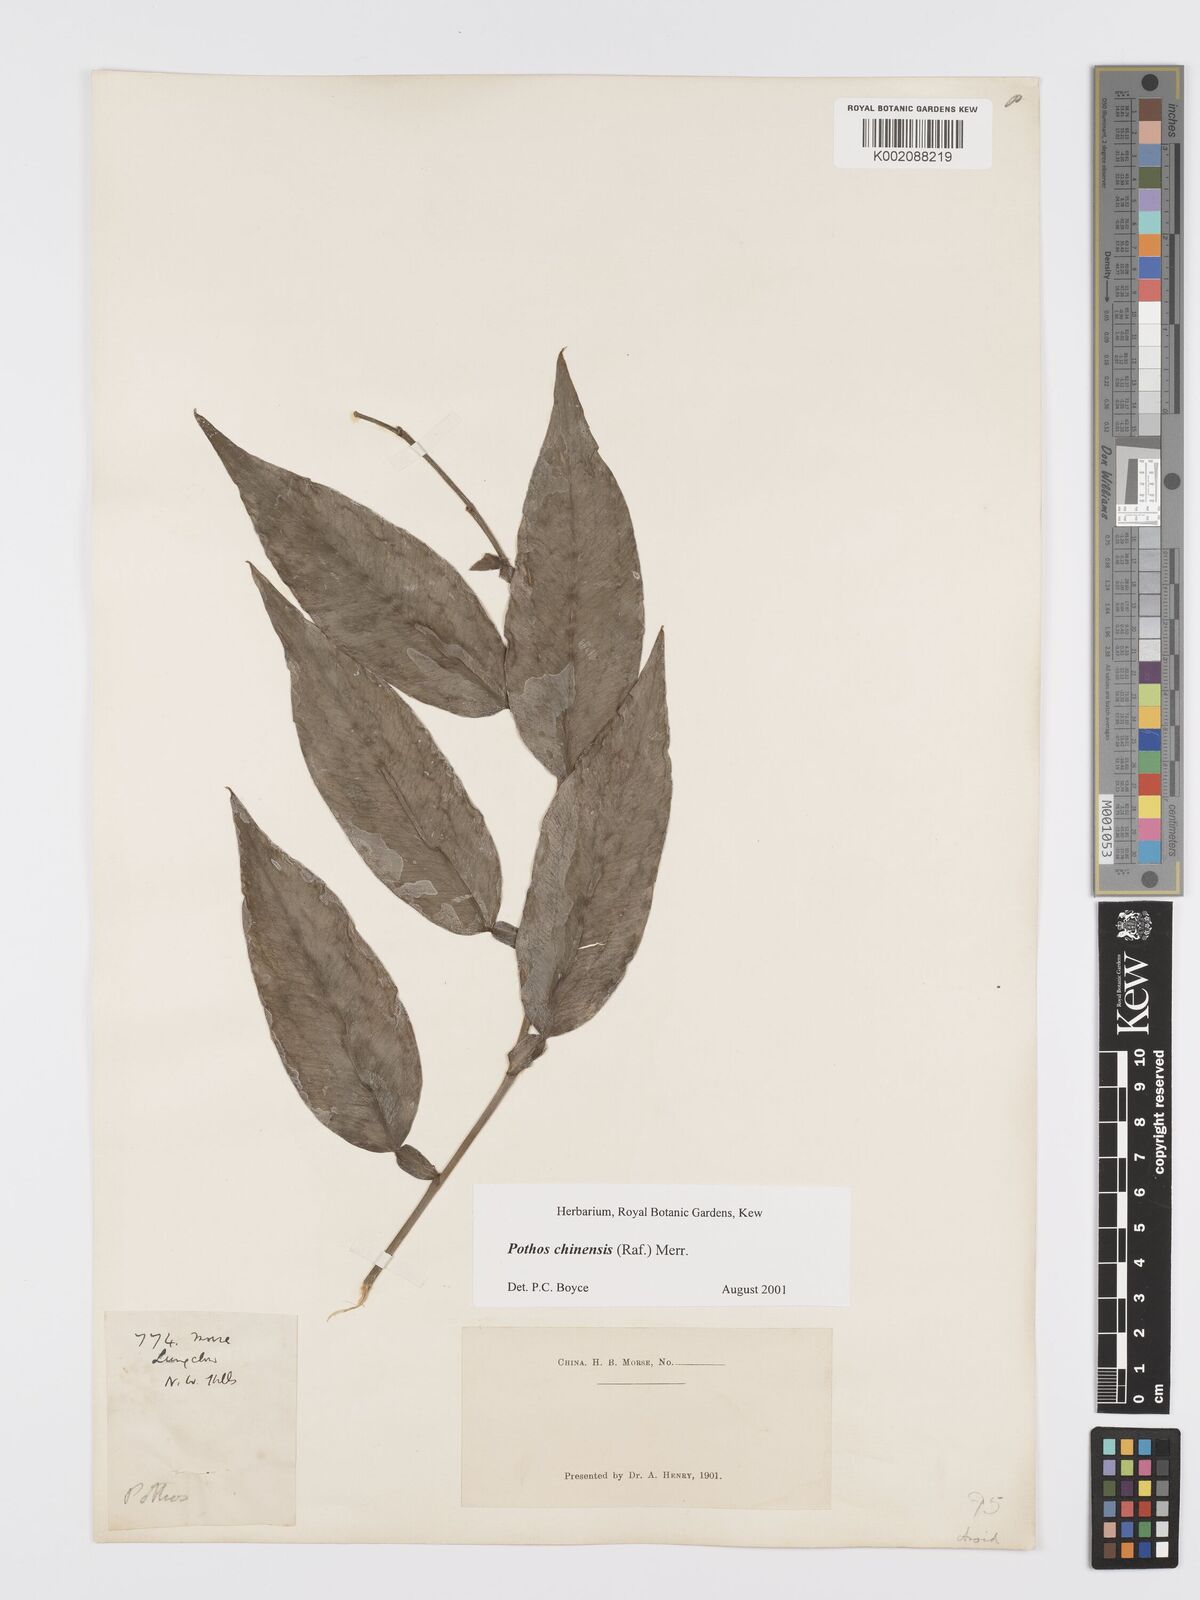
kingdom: Plantae
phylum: Tracheophyta
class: Liliopsida
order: Alismatales
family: Araceae
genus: Pothos
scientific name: Pothos chinensis
